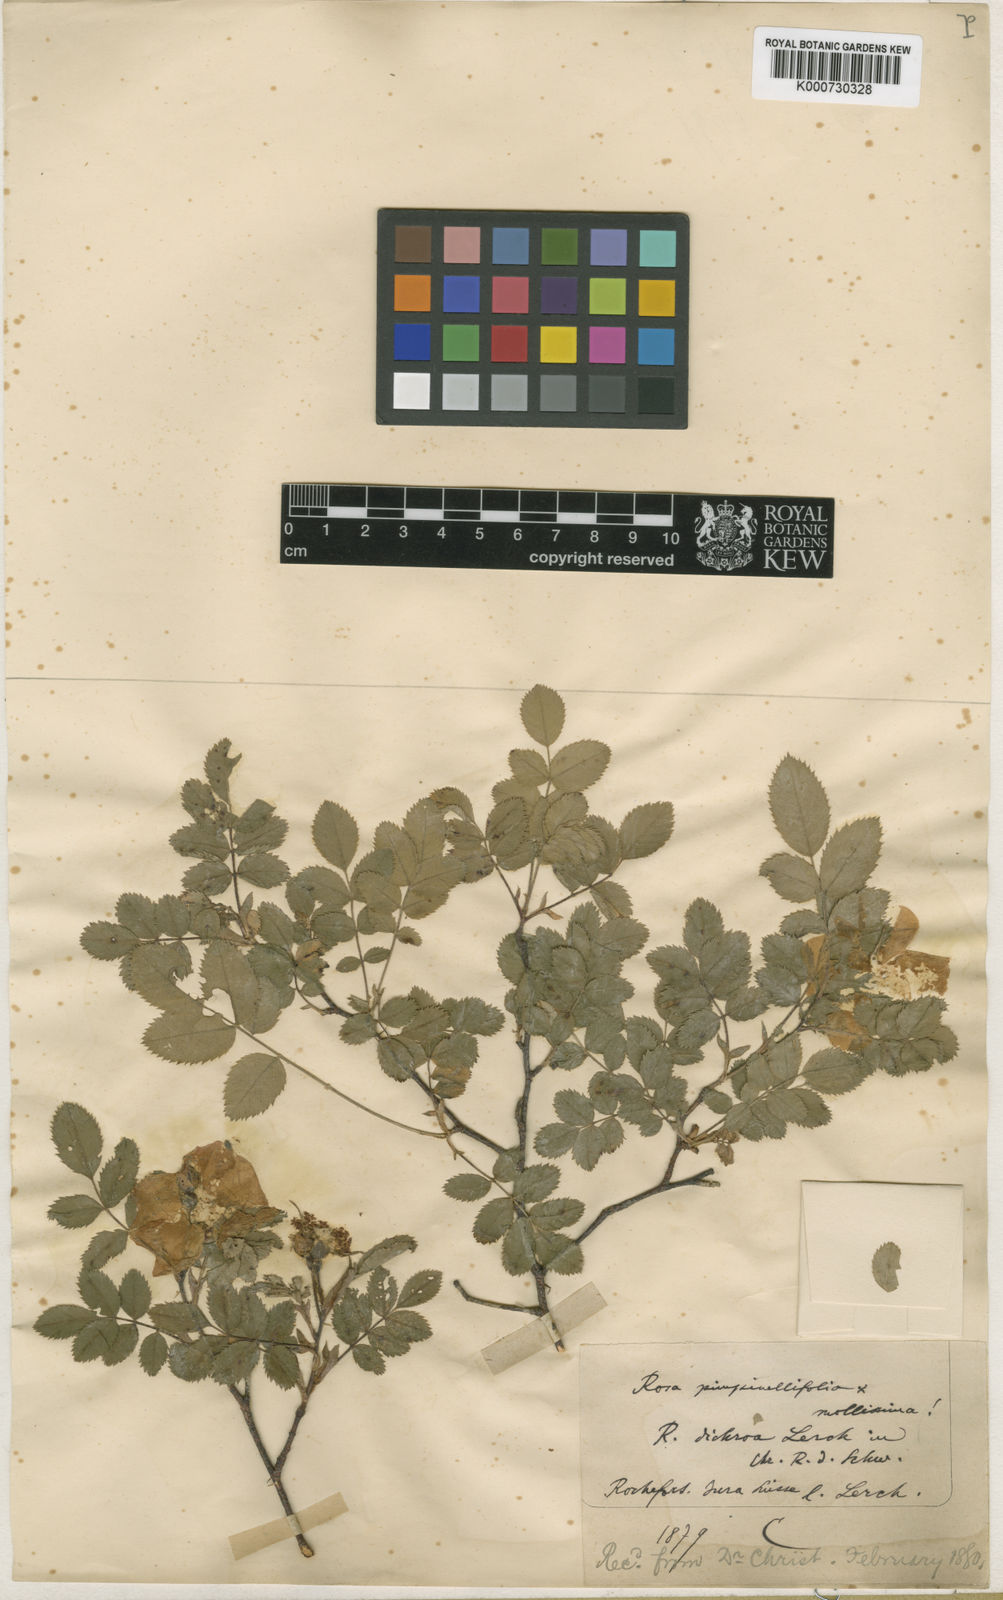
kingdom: Plantae
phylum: Tracheophyta
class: Magnoliopsida
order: Rosales
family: Rosaceae
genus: Rosa
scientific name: Rosa spinosissima
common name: Burnet rose
